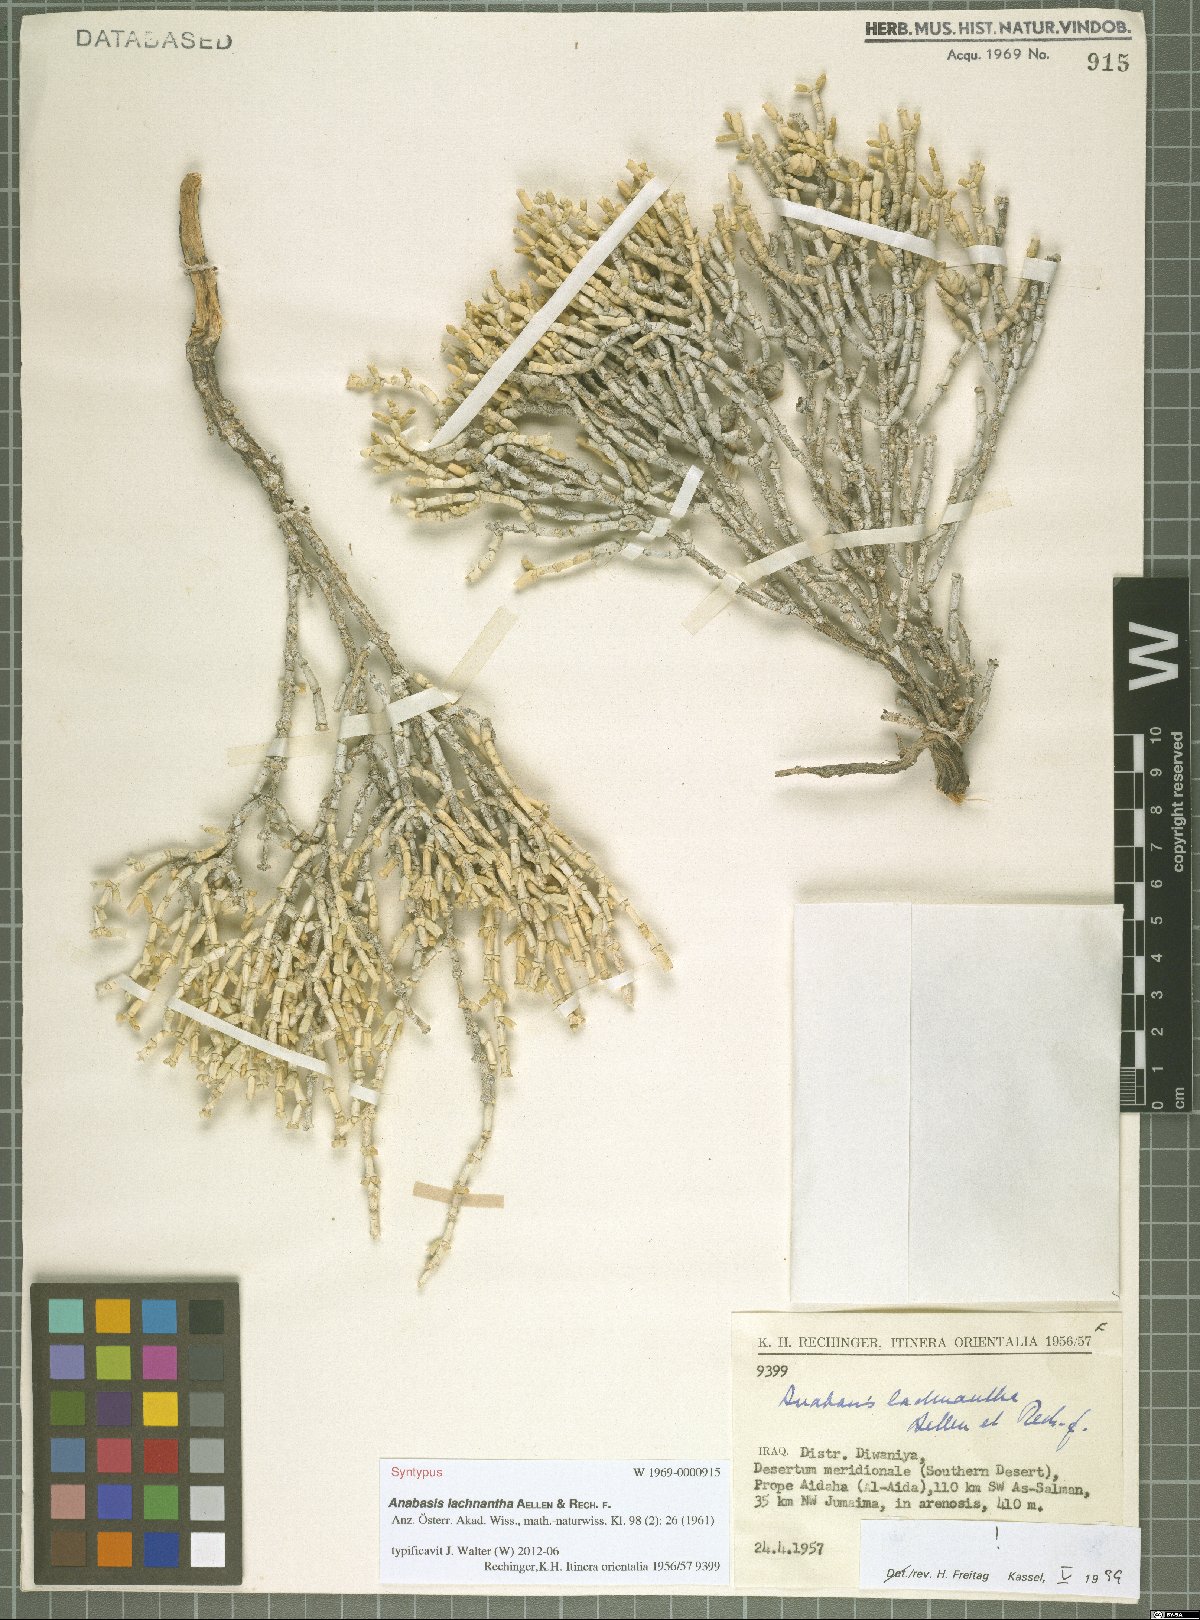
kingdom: Plantae
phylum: Tracheophyta
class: Magnoliopsida
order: Caryophyllales
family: Amaranthaceae
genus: Anabasis
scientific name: Anabasis lachnantha
